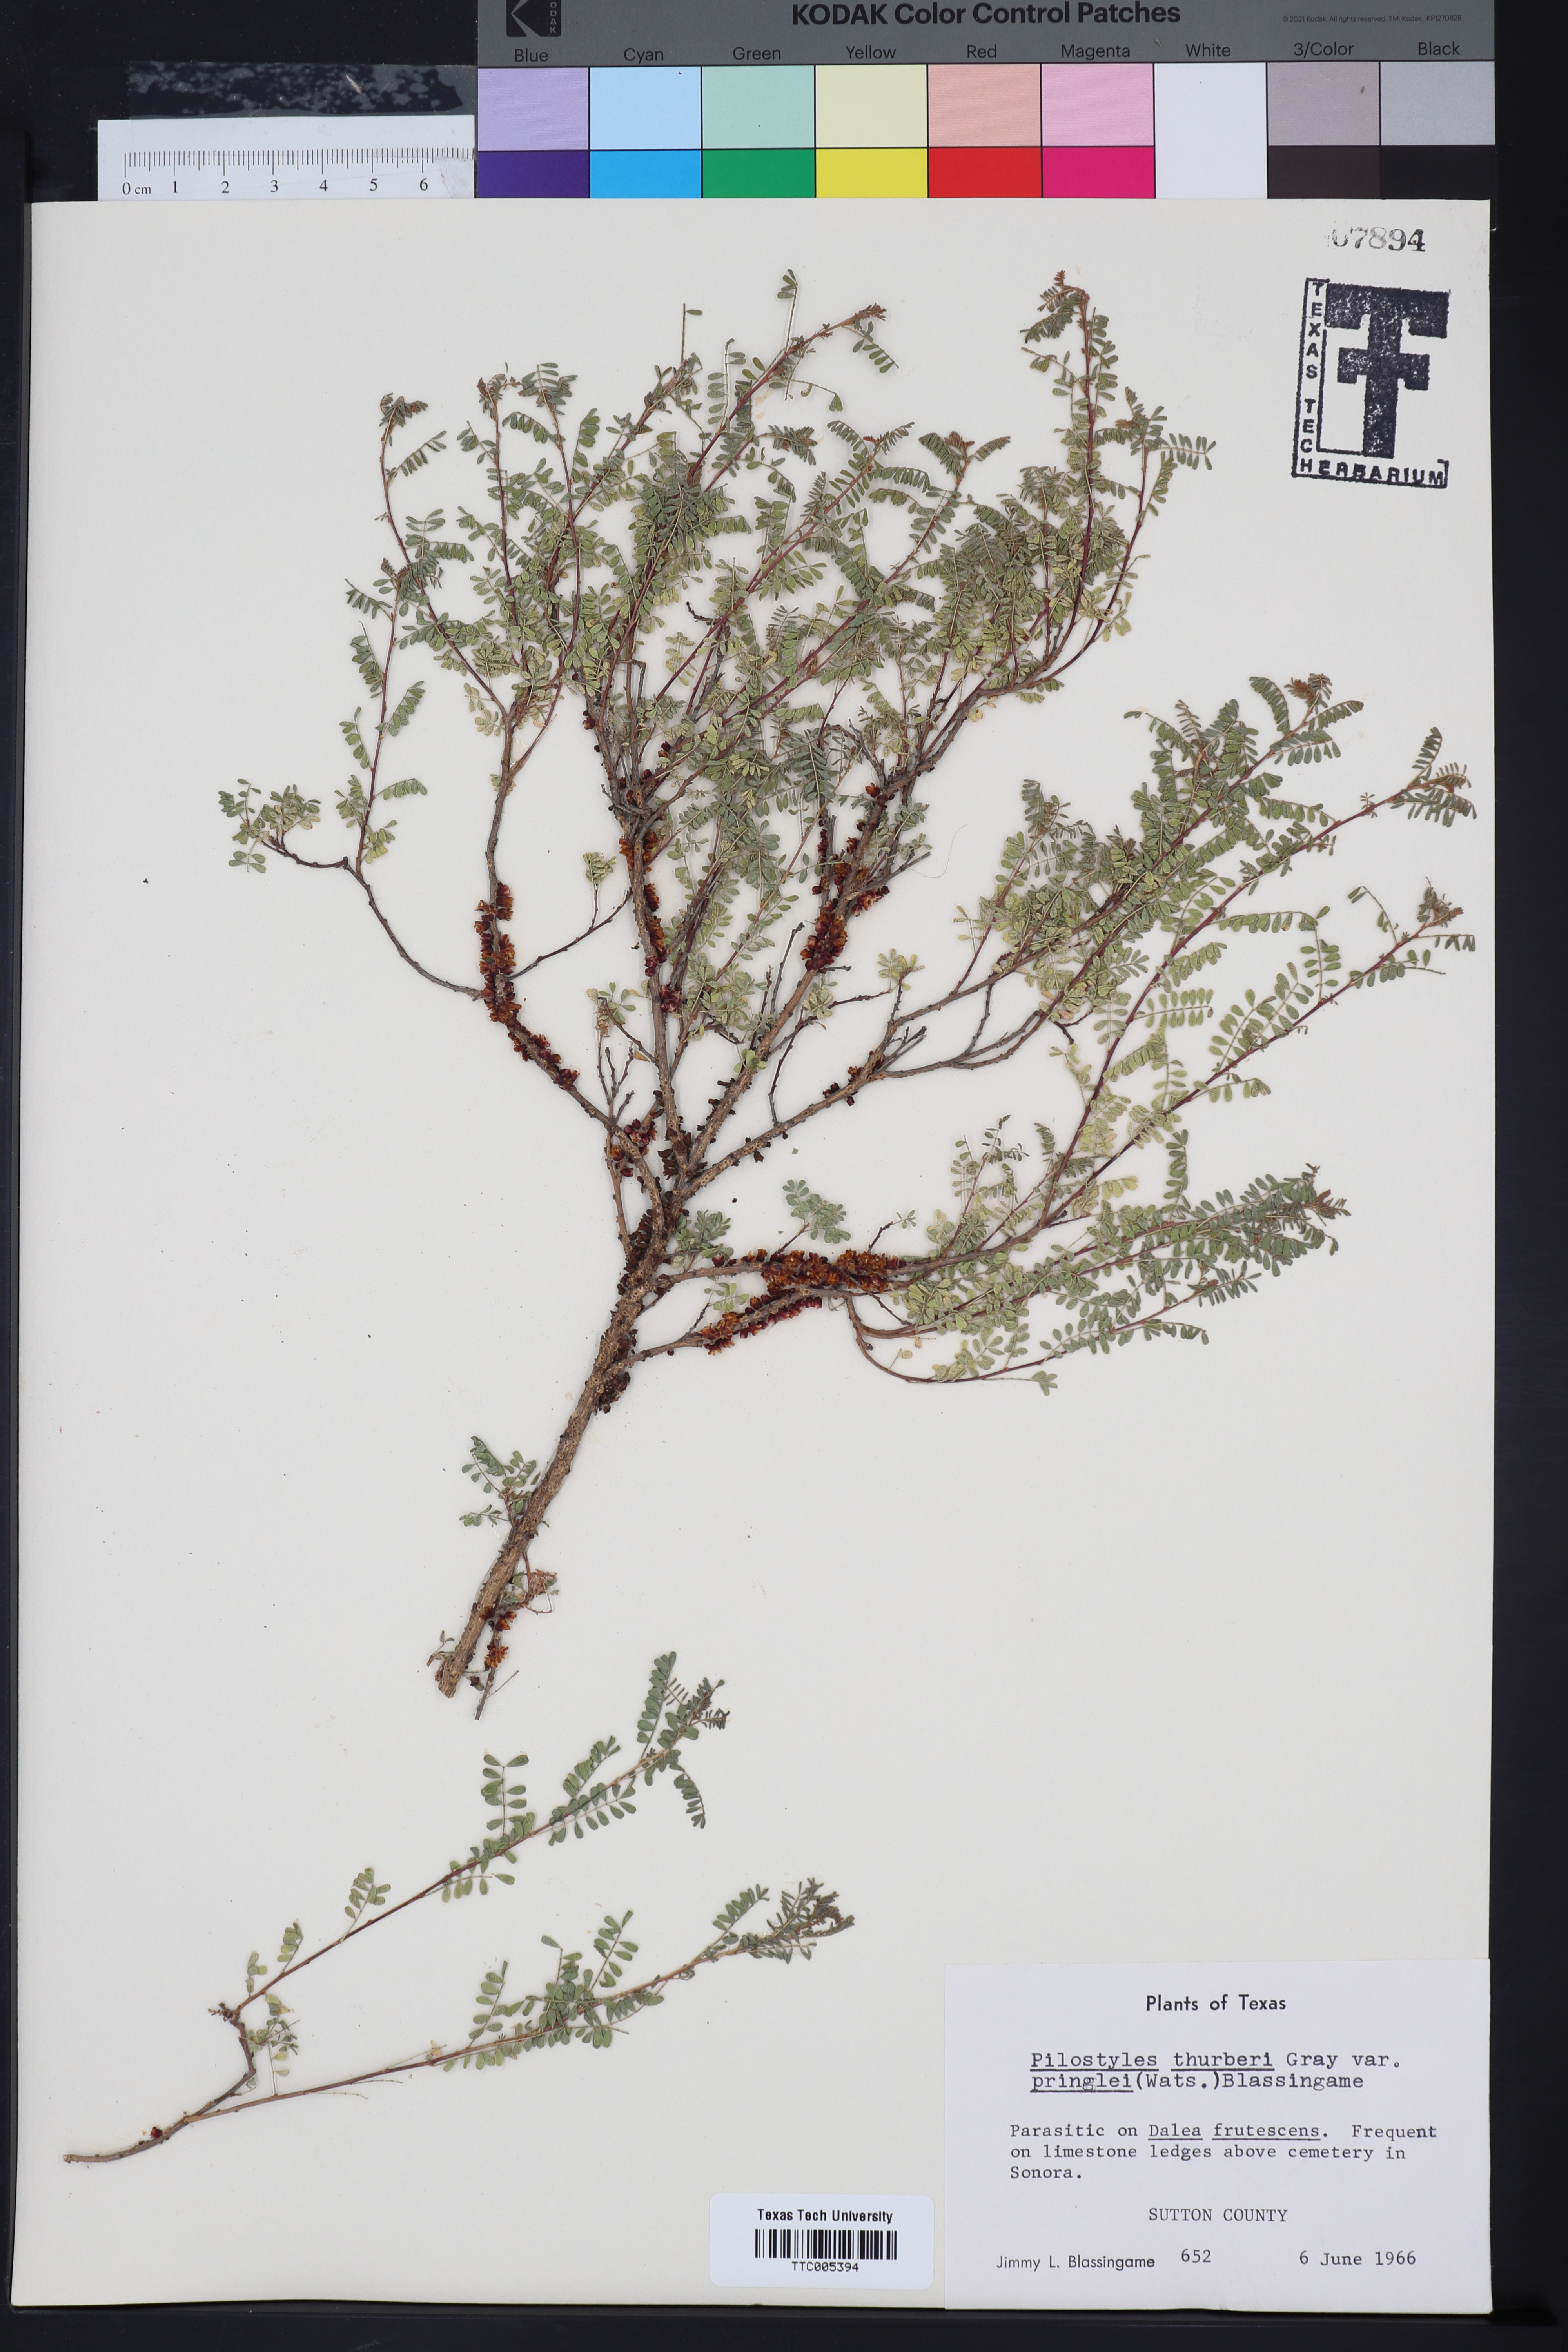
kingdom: Plantae
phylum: Tracheophyta
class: Magnoliopsida
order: Cucurbitales
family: Apodanthaceae
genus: Pilostyles
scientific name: Pilostyles thurberi
